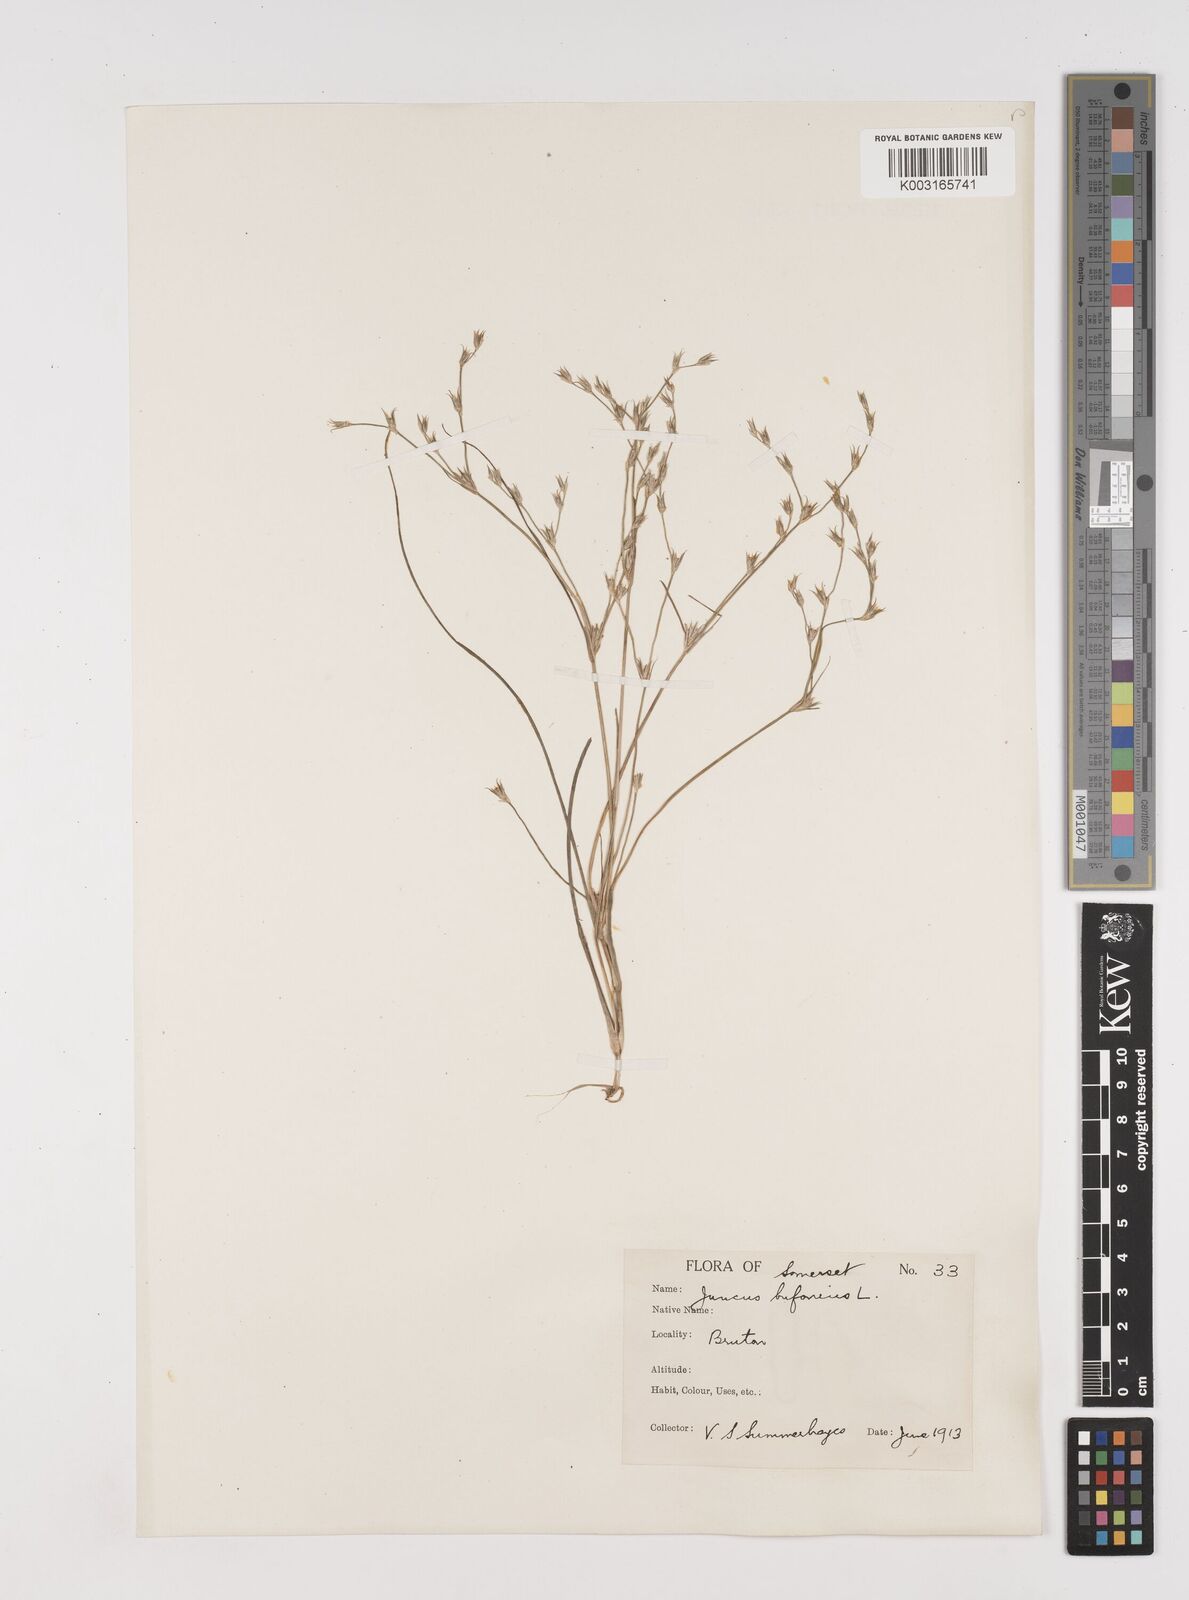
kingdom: Plantae
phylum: Tracheophyta
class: Liliopsida
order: Poales
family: Juncaceae
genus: Juncus
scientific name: Juncus bufonius
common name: Toad rush
